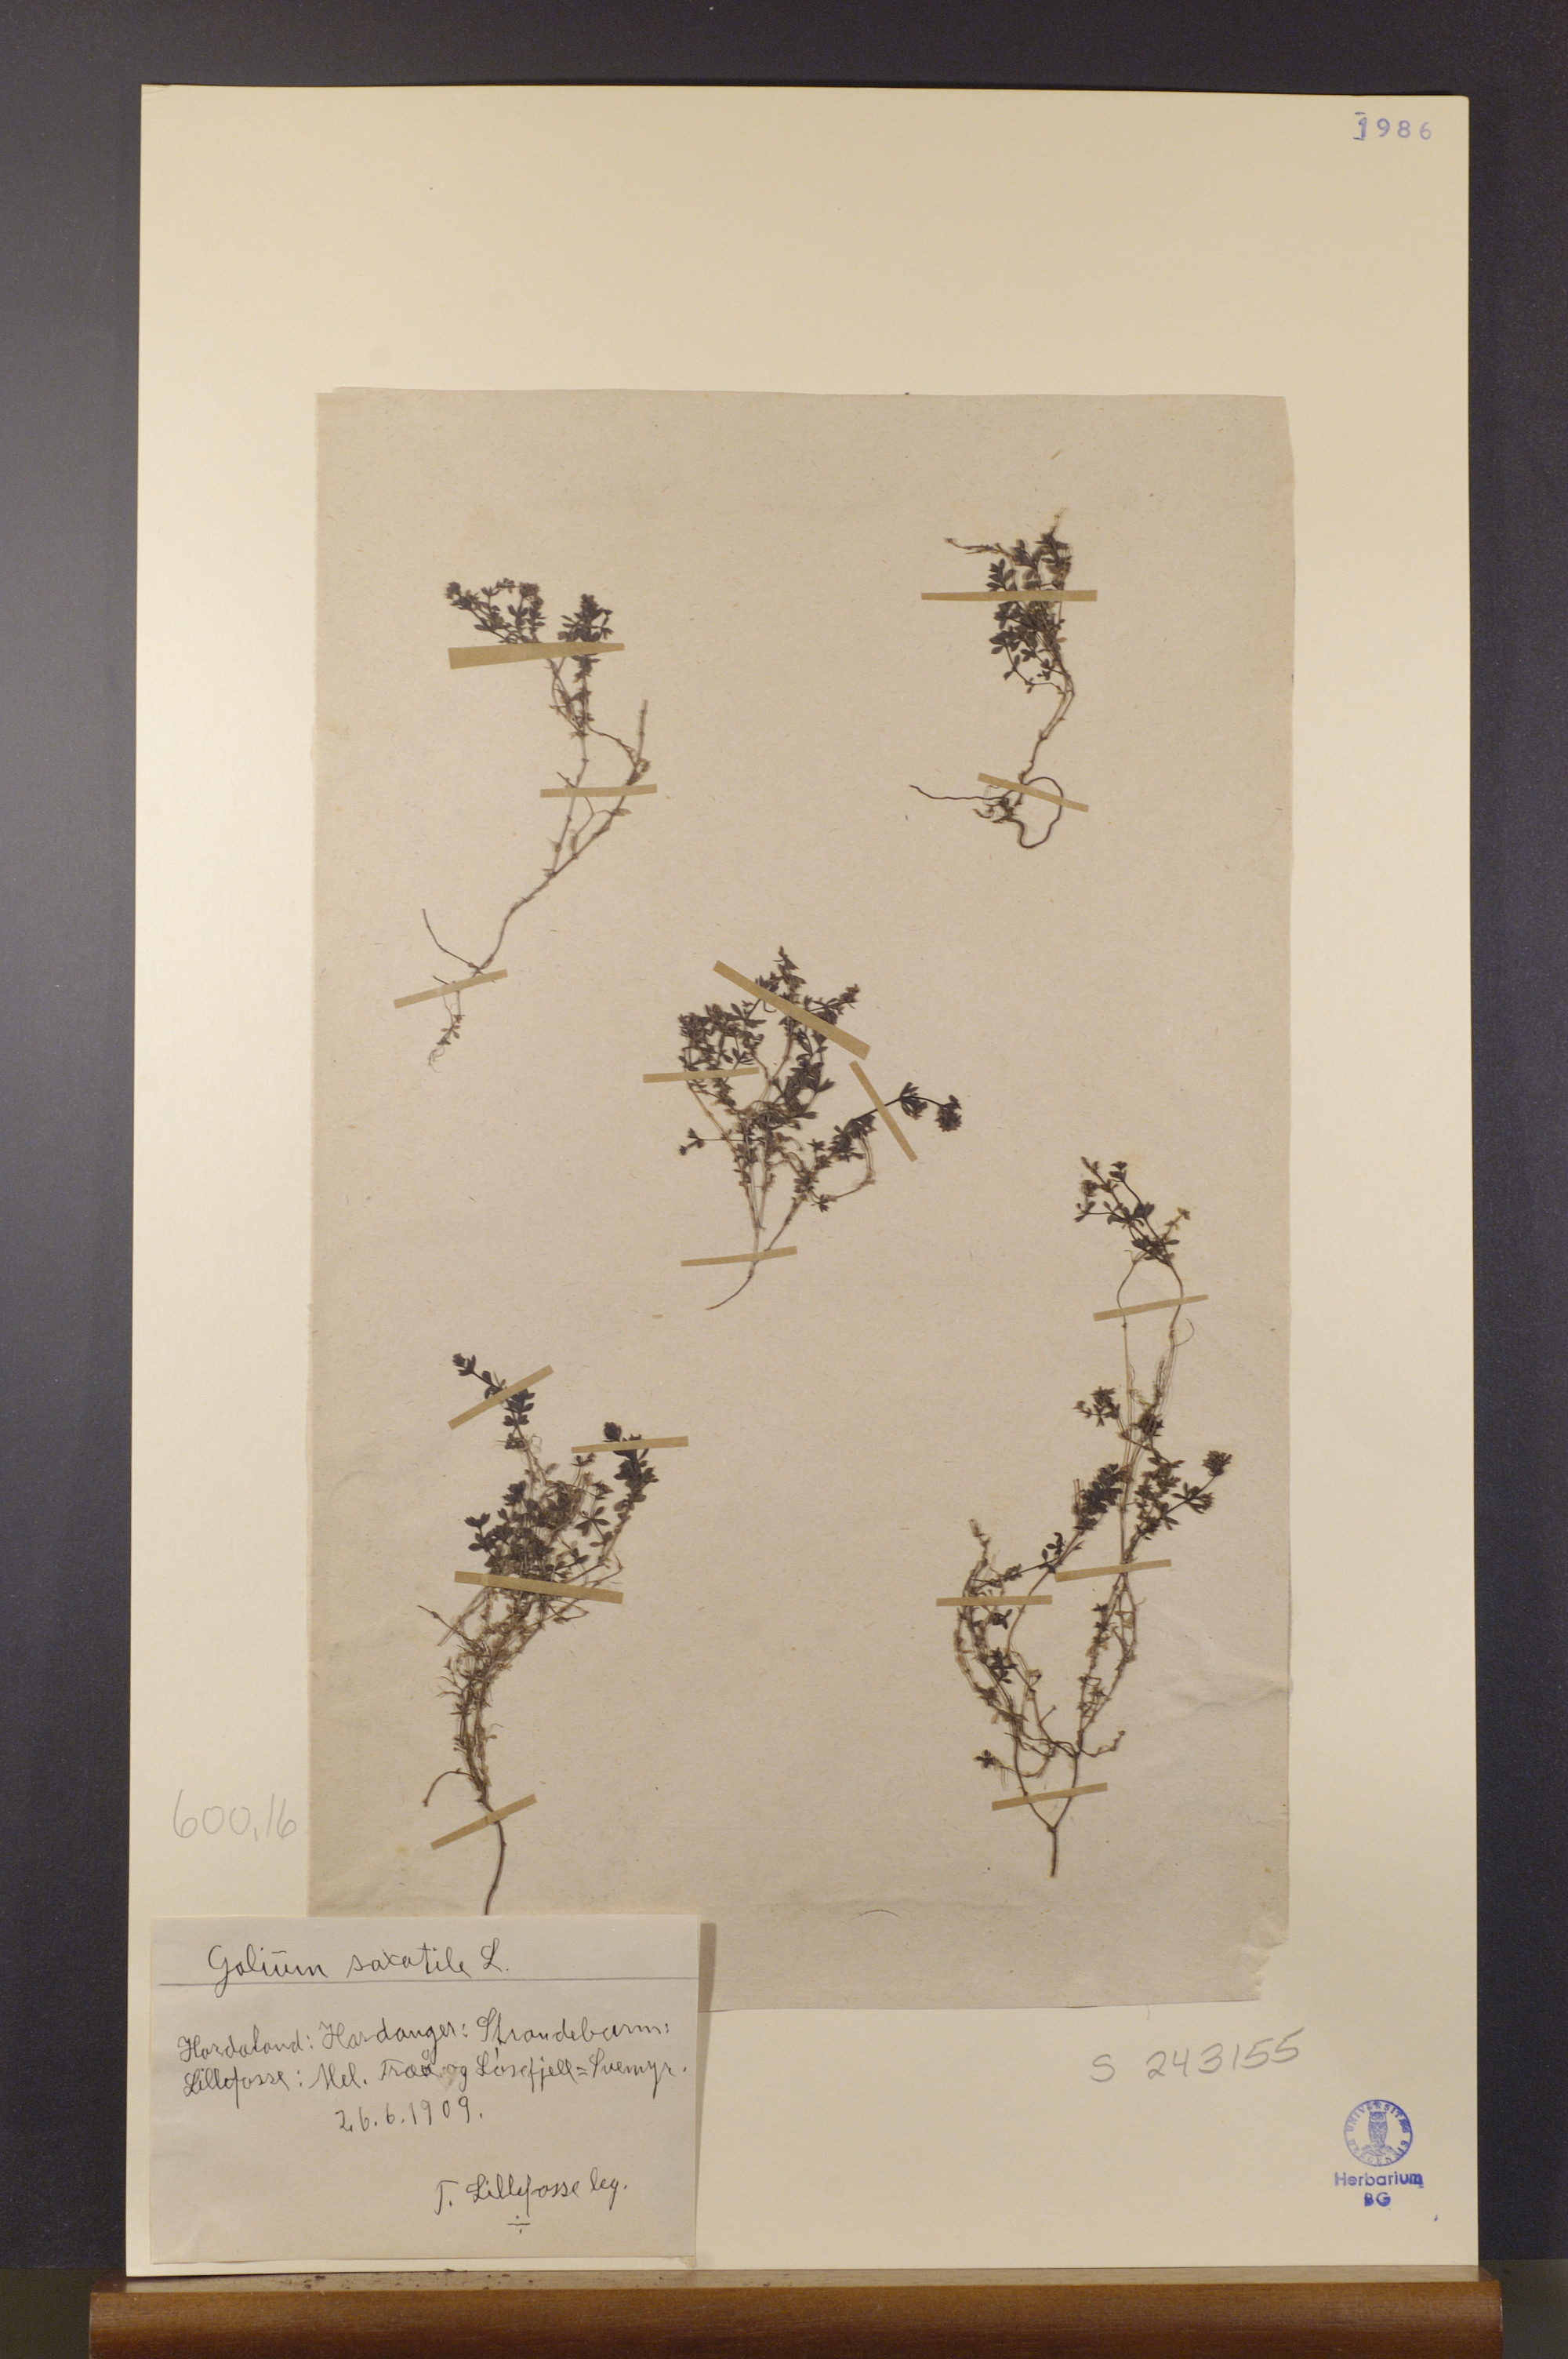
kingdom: Plantae
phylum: Tracheophyta
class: Magnoliopsida
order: Gentianales
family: Rubiaceae
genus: Galium
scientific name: Galium saxatile
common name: Heath bedstraw
